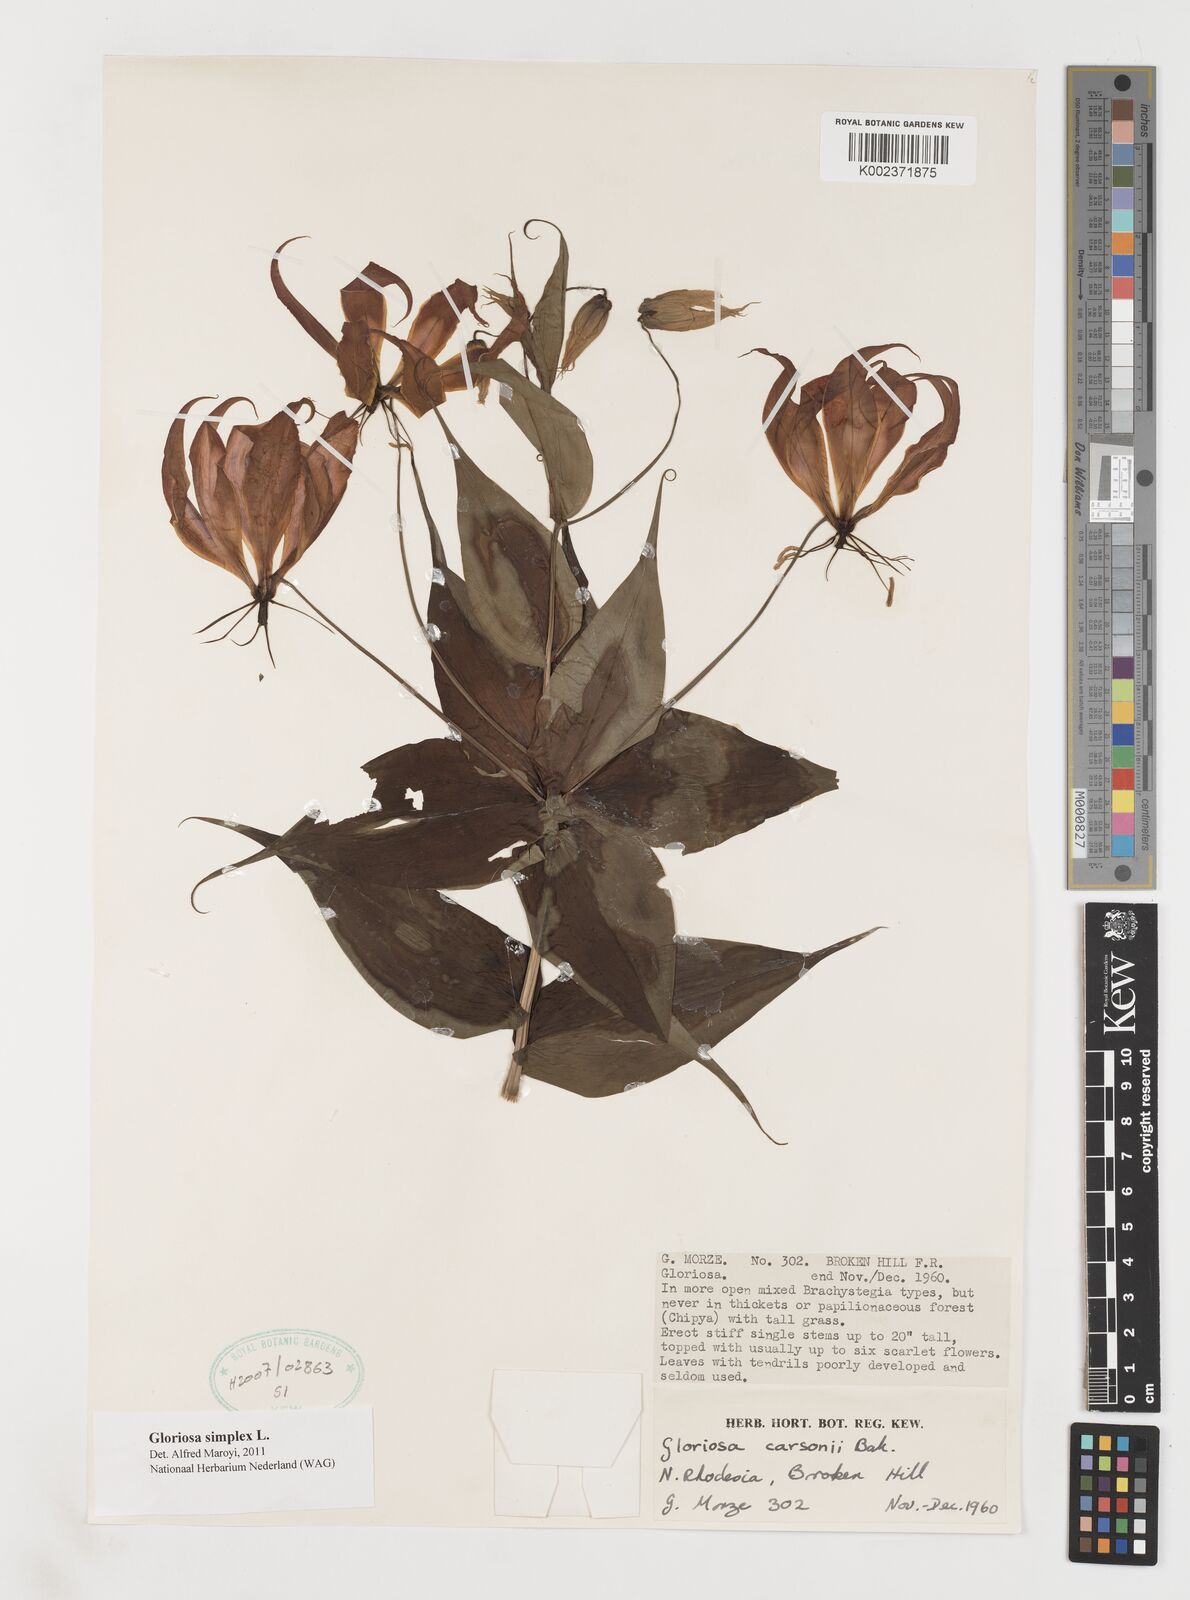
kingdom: Plantae
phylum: Tracheophyta
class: Liliopsida
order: Liliales
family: Colchicaceae
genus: Gloriosa
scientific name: Gloriosa simplex
